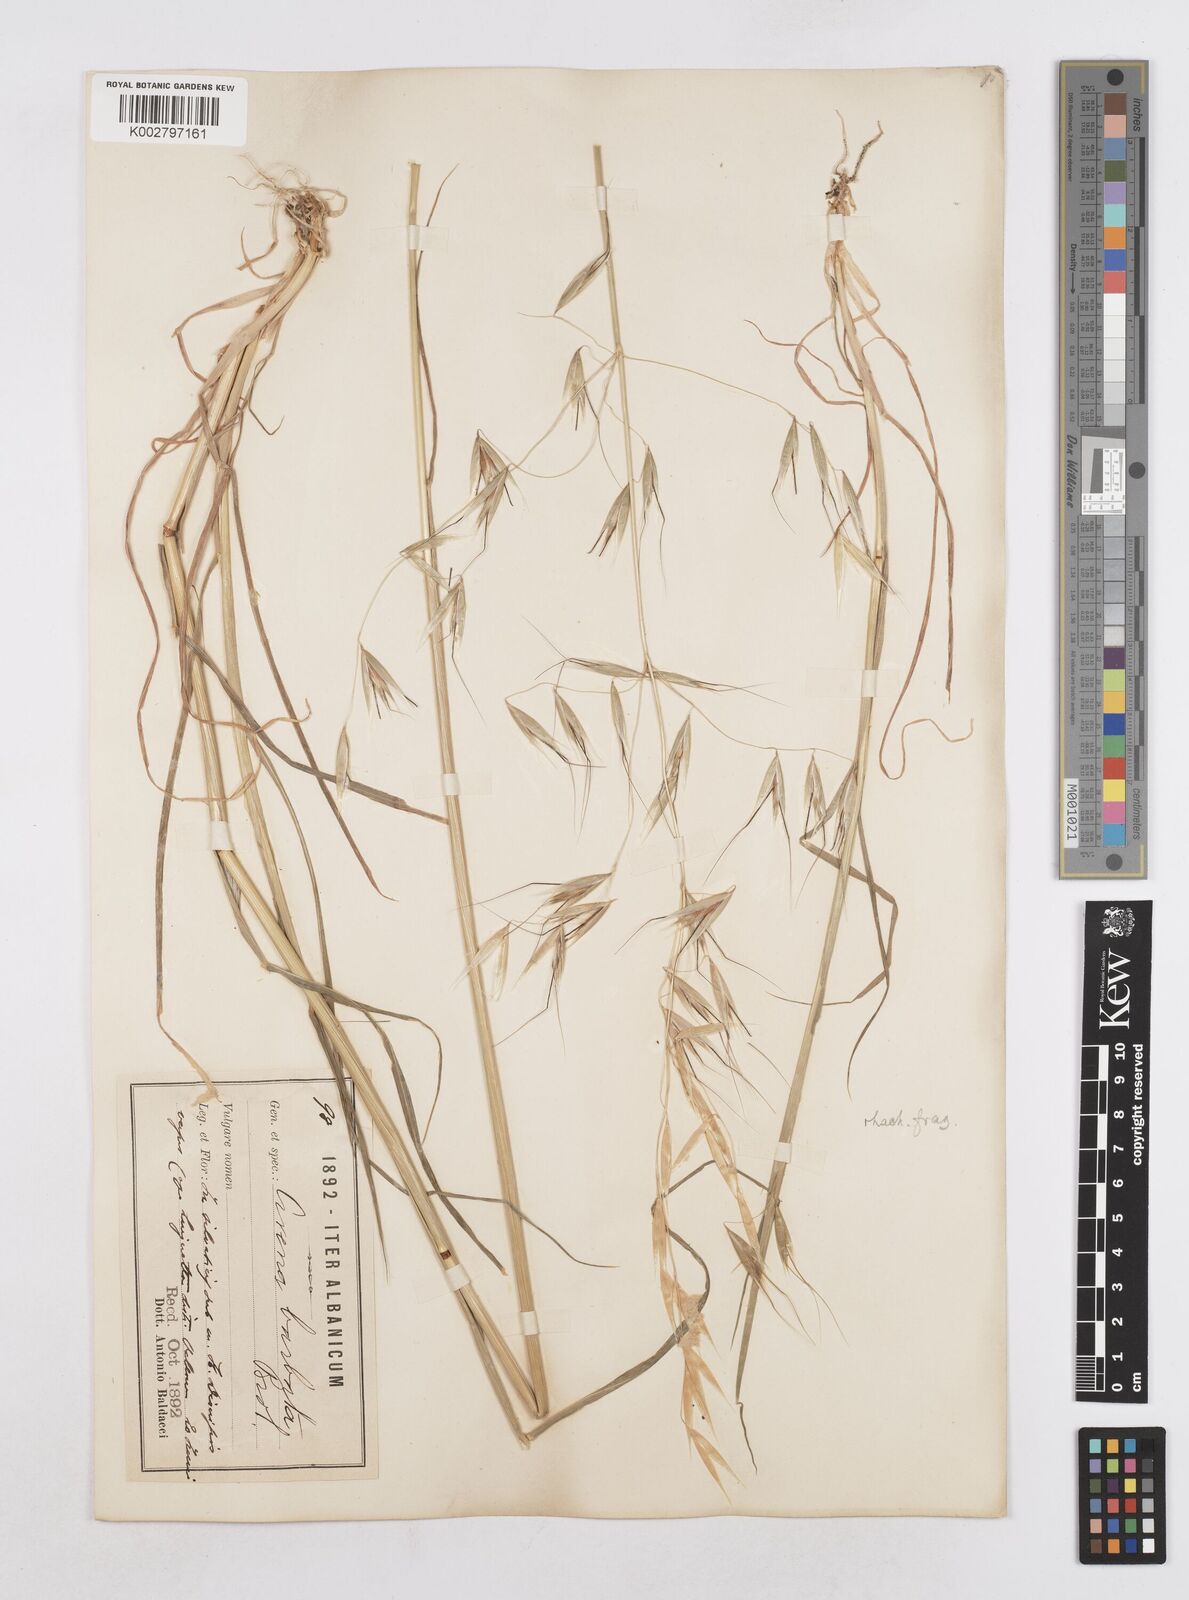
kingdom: Plantae
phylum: Tracheophyta
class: Liliopsida
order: Poales
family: Poaceae
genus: Avena
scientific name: Avena
